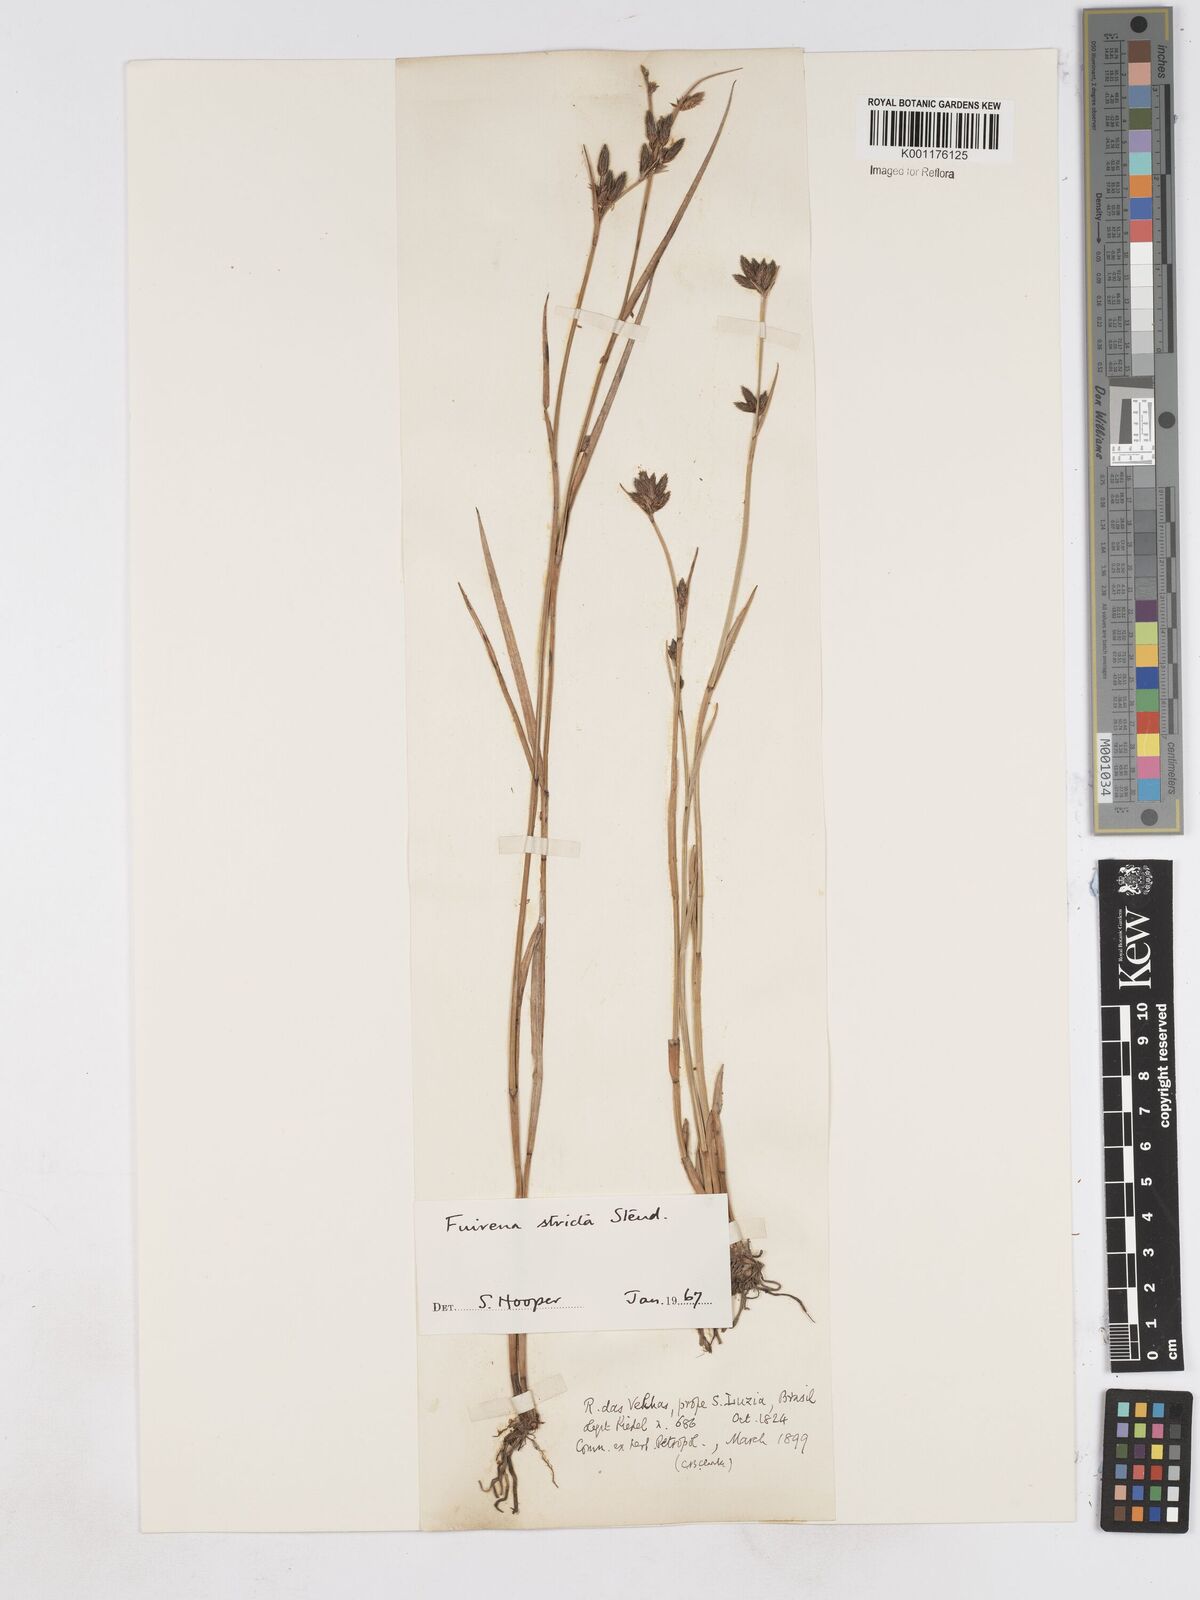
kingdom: Plantae
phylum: Tracheophyta
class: Liliopsida
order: Poales
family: Cyperaceae
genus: Fuirena
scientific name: Fuirena stricta
